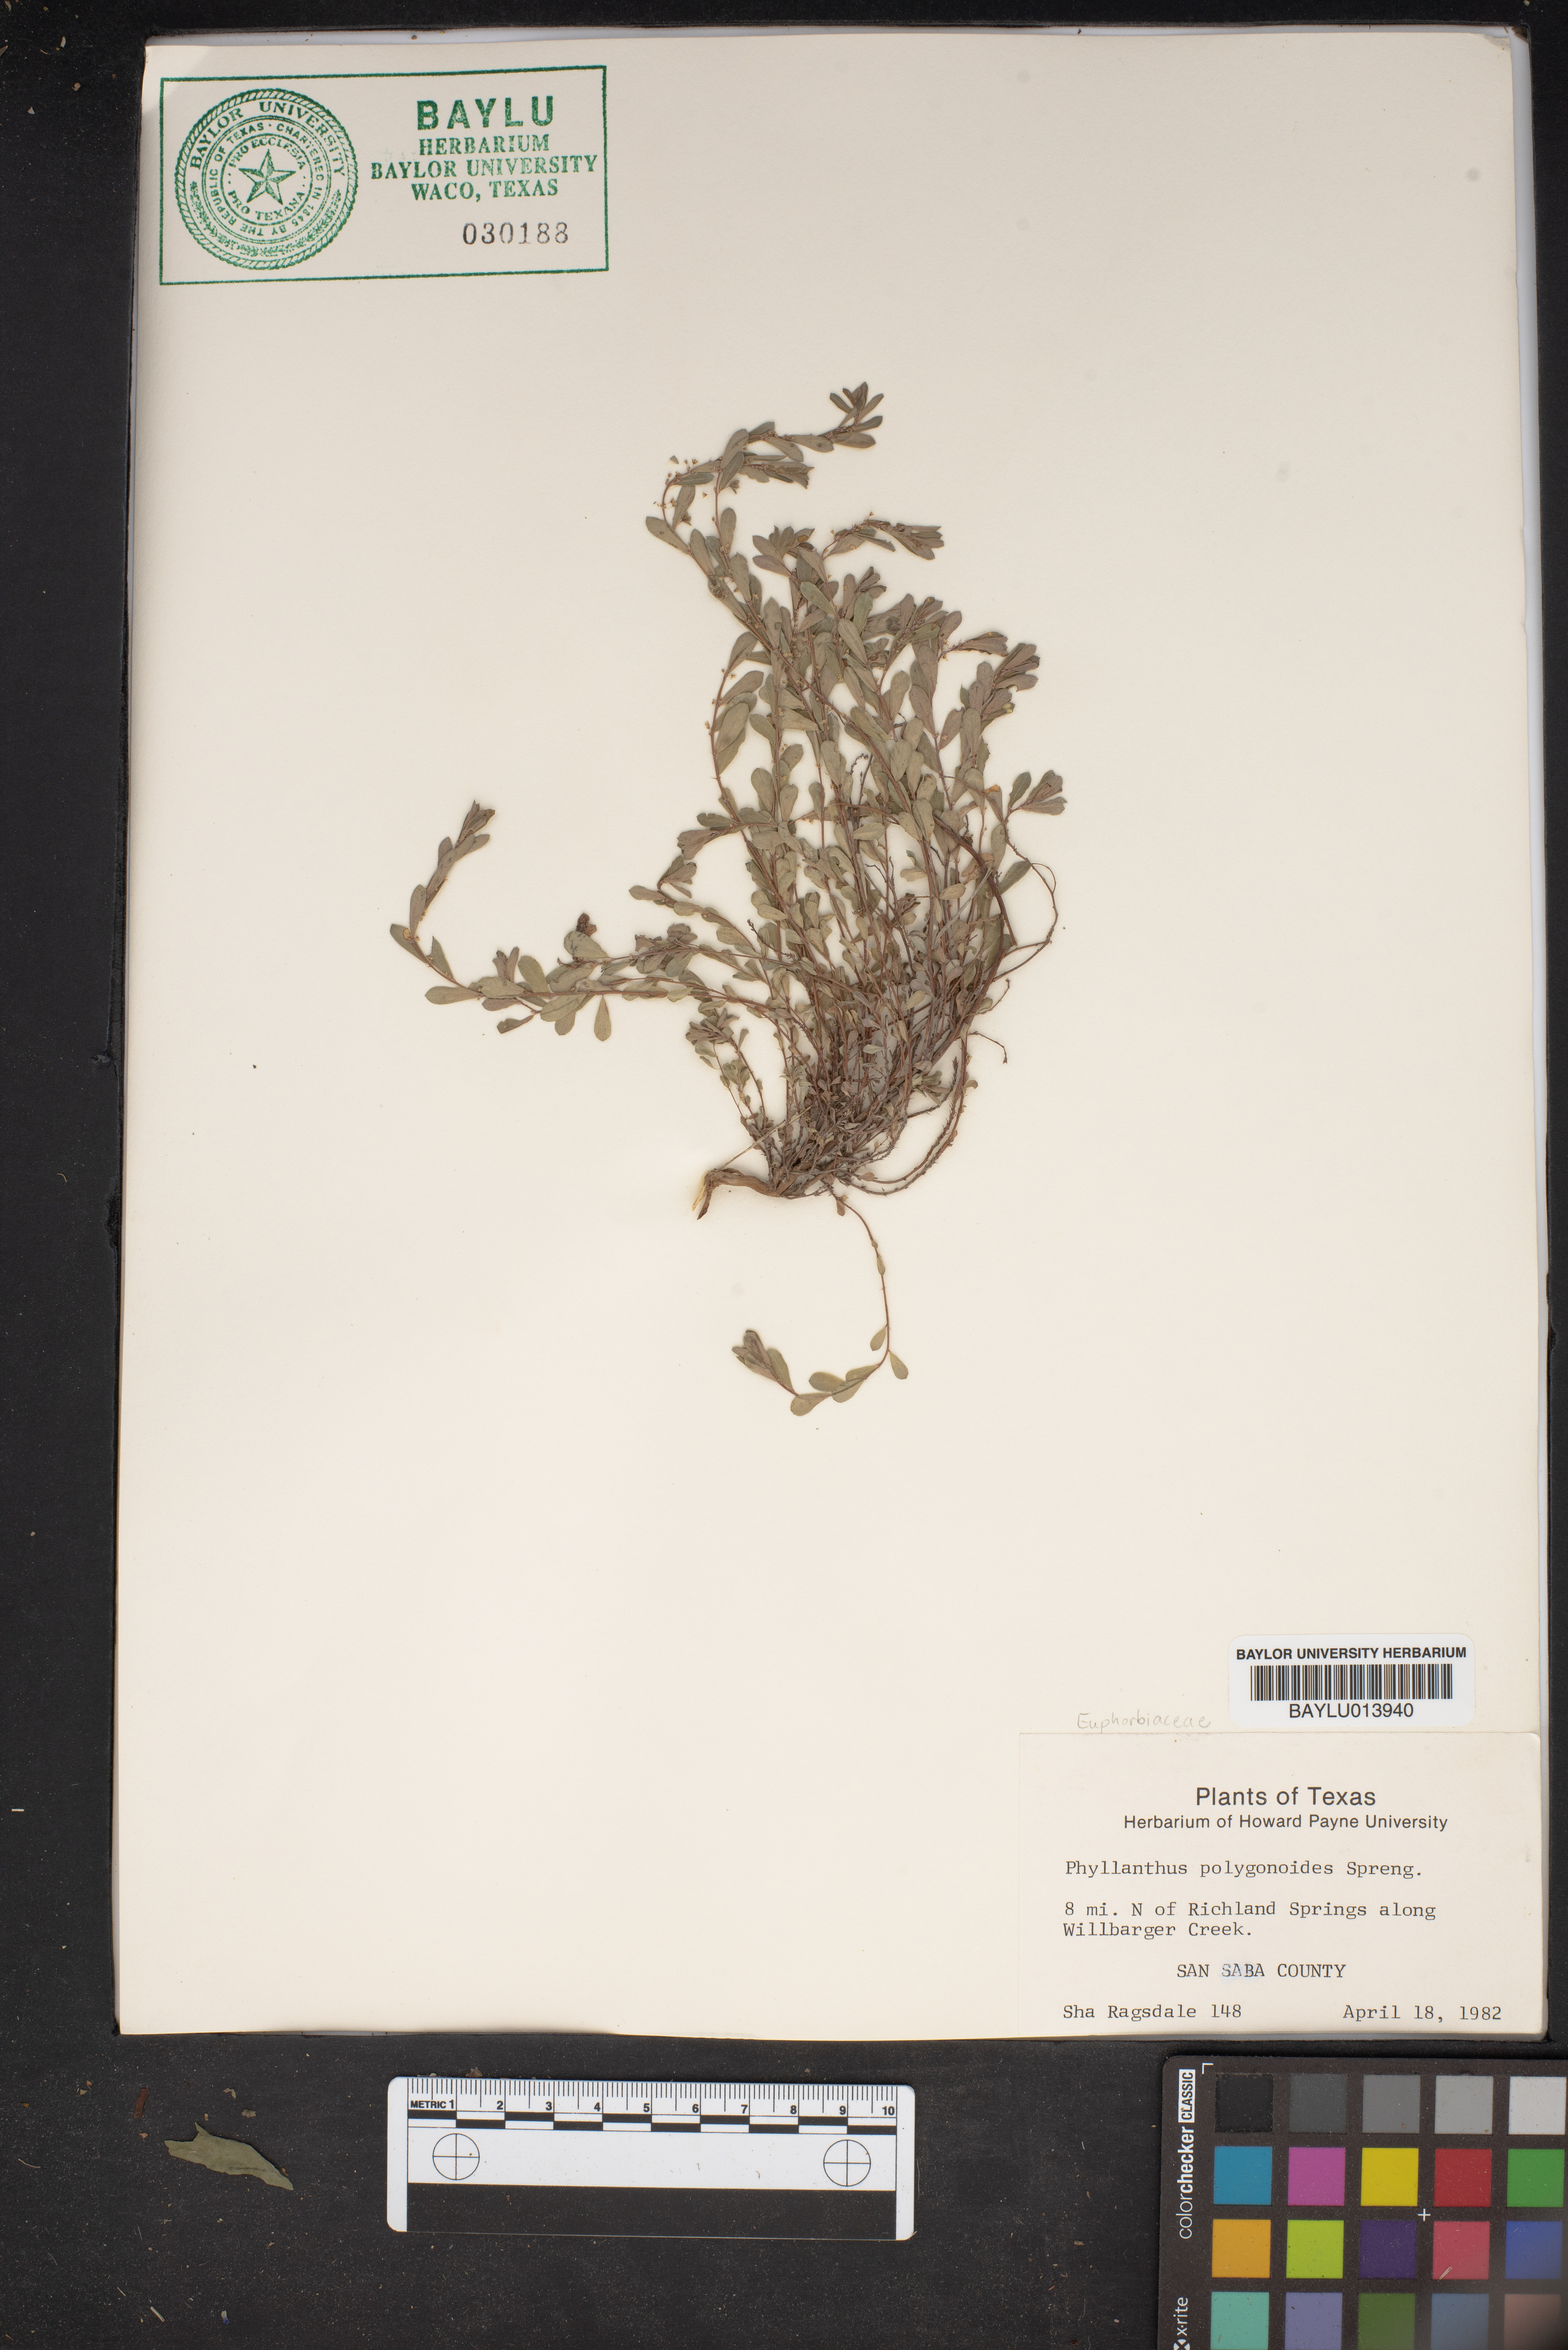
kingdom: Plantae
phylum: Tracheophyta
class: Magnoliopsida
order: Malpighiales
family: Phyllanthaceae
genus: Phyllanthus
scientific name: Phyllanthus polygonoides
